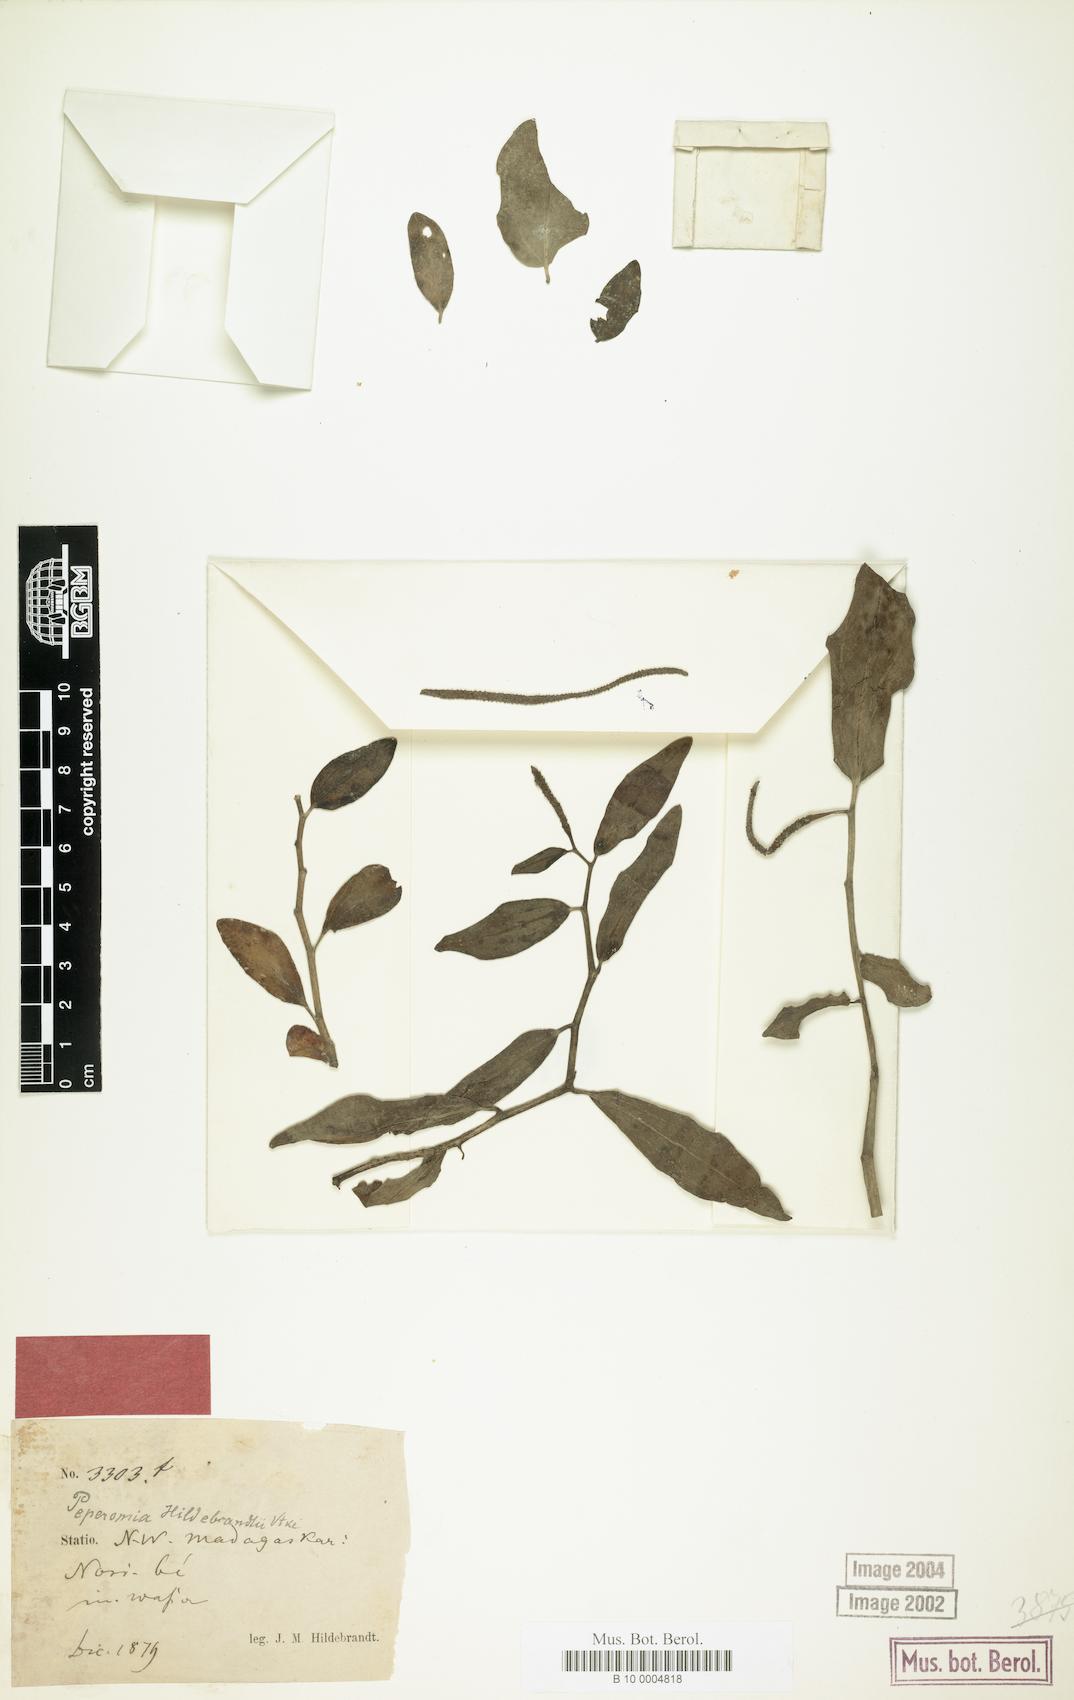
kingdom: Plantae
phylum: Tracheophyta
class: Magnoliopsida
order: Piperales
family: Piperaceae
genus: Peperomia
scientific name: Peperomia hildebrandtii
